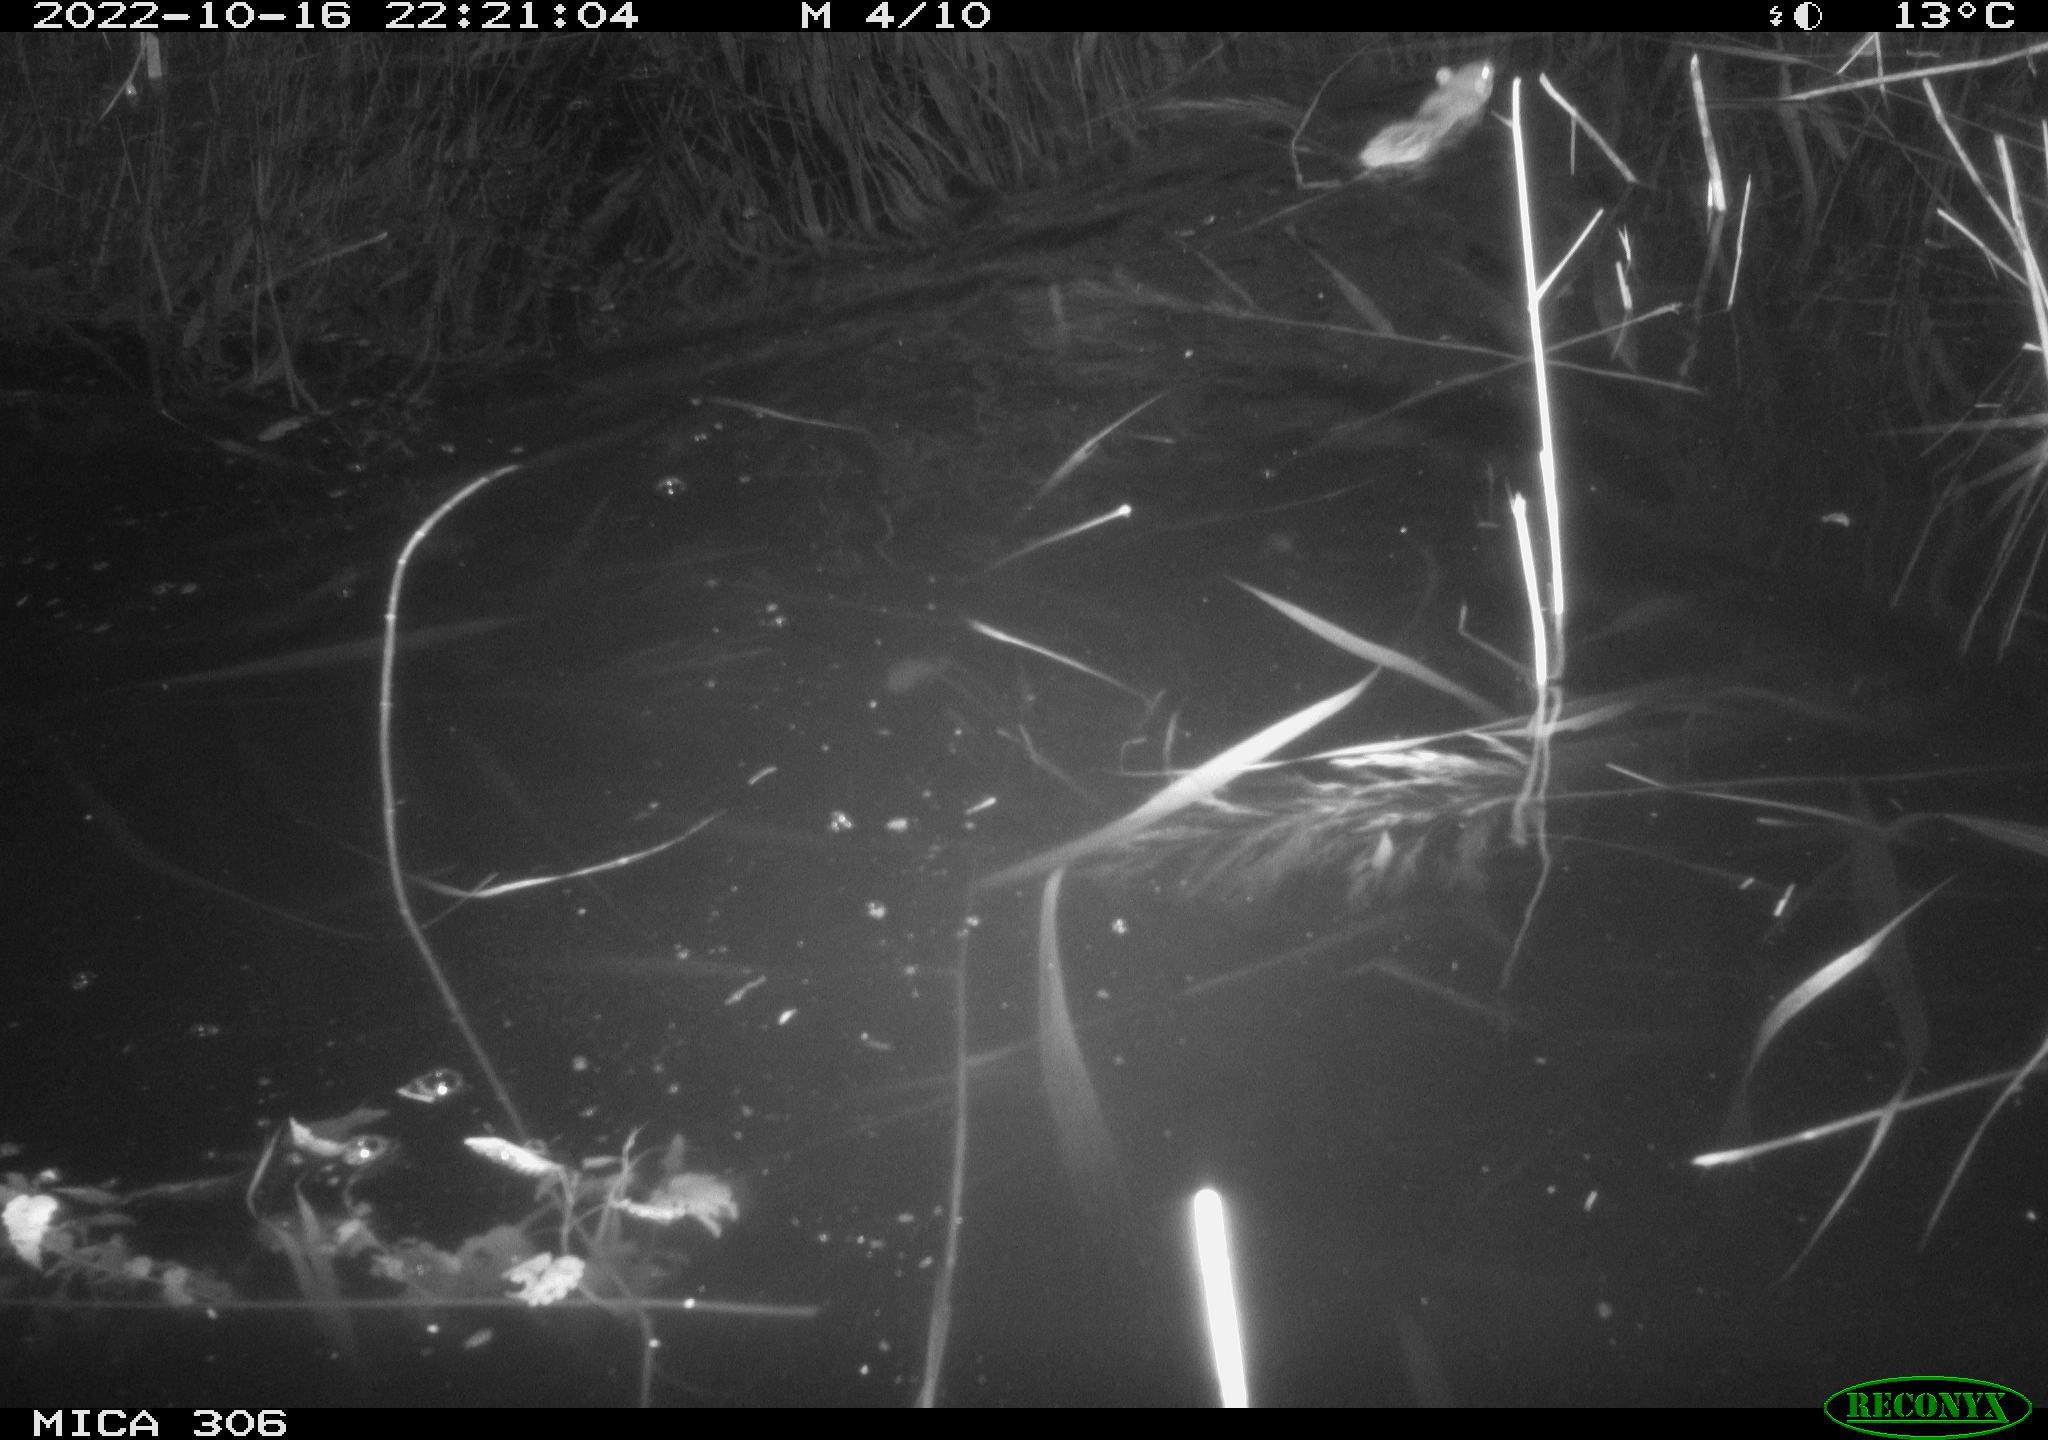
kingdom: Animalia
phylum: Chordata
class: Mammalia
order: Rodentia
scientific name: Rodentia
